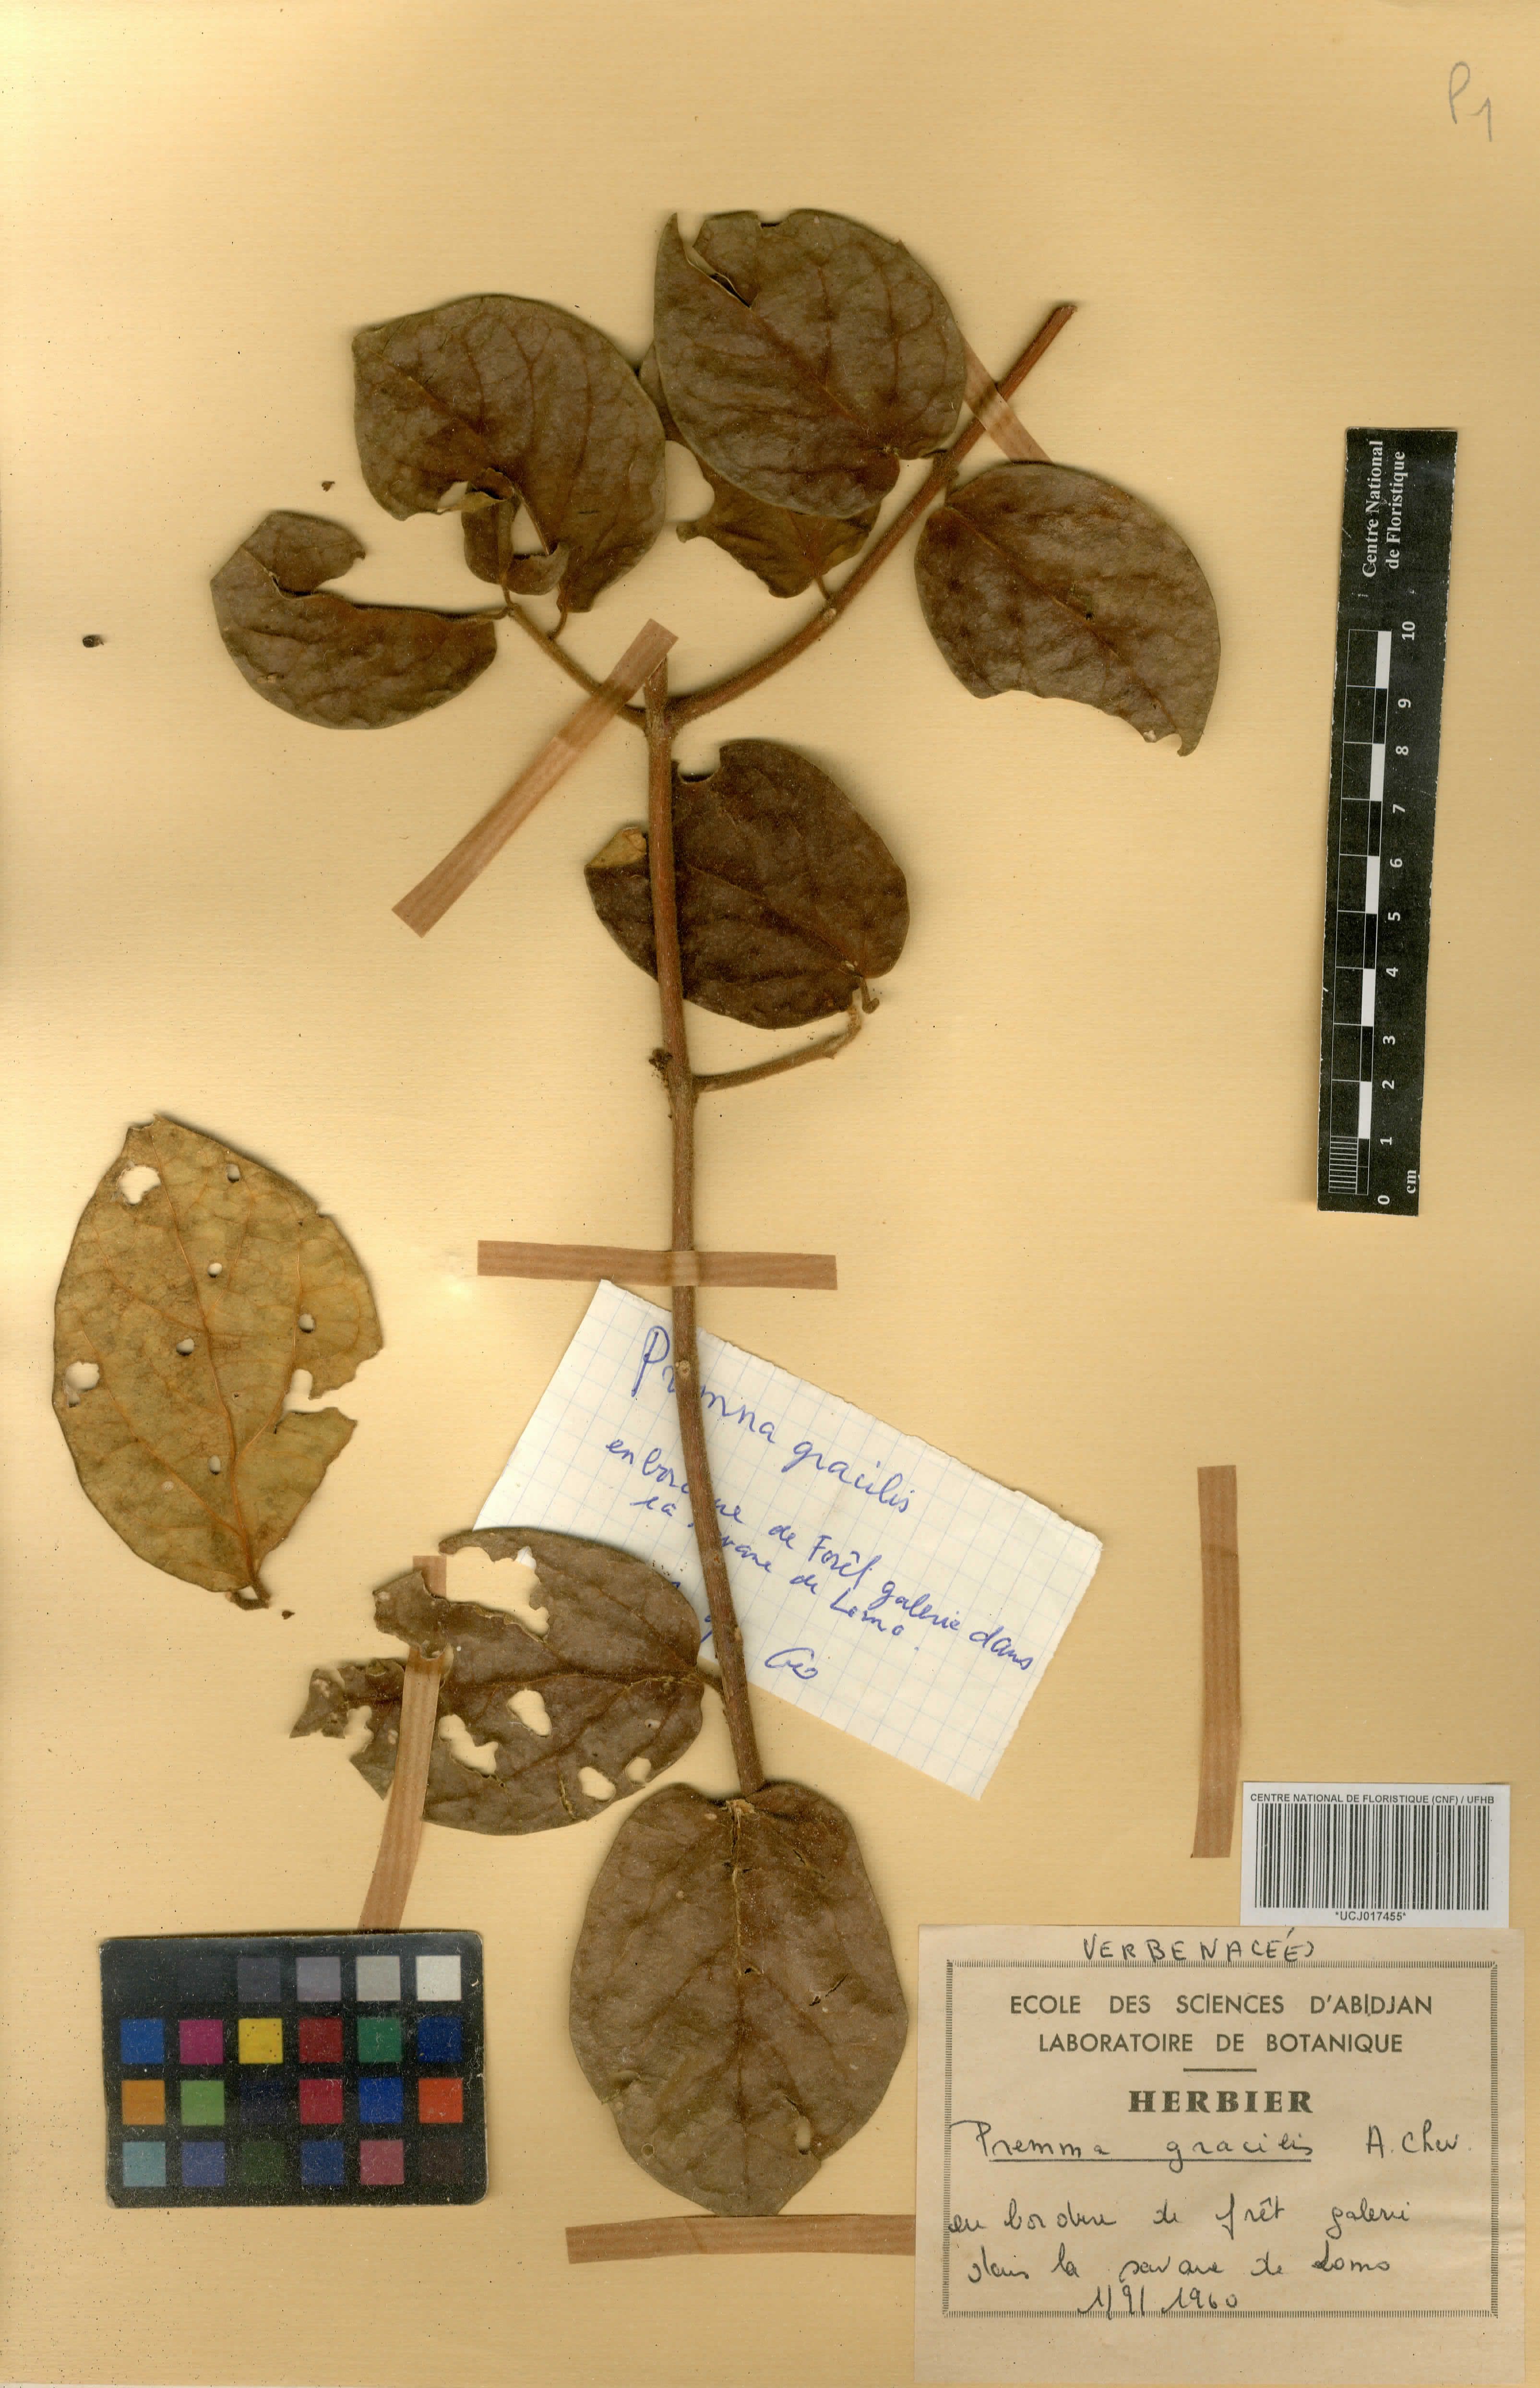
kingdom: Plantae
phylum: Tracheophyta
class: Magnoliopsida
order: Lamiales
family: Lamiaceae
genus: Premna
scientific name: Premna lucens
